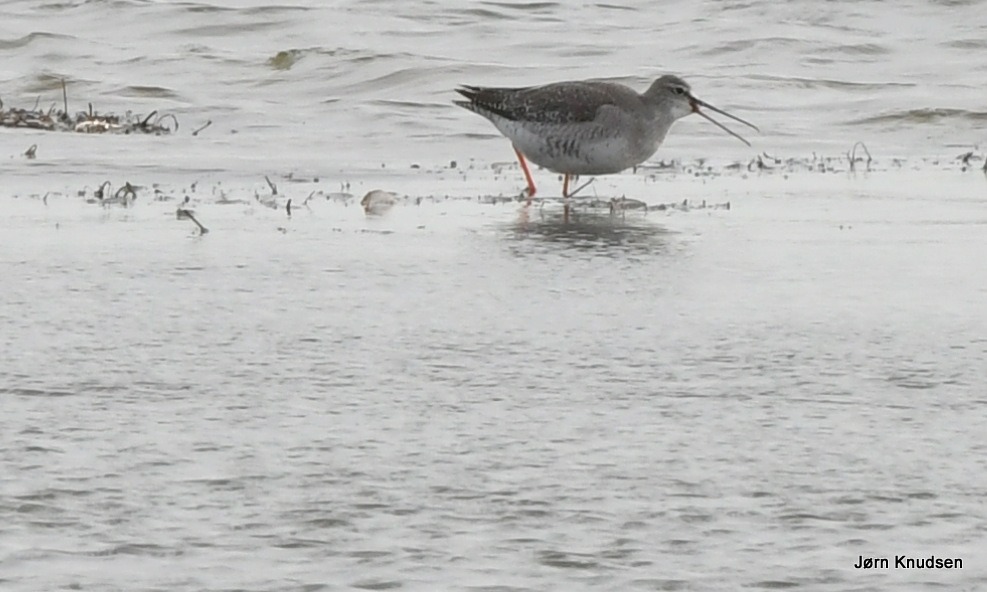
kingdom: Animalia
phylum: Chordata
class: Aves
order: Charadriiformes
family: Scolopacidae
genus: Tringa
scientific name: Tringa erythropus
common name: Sortklire
